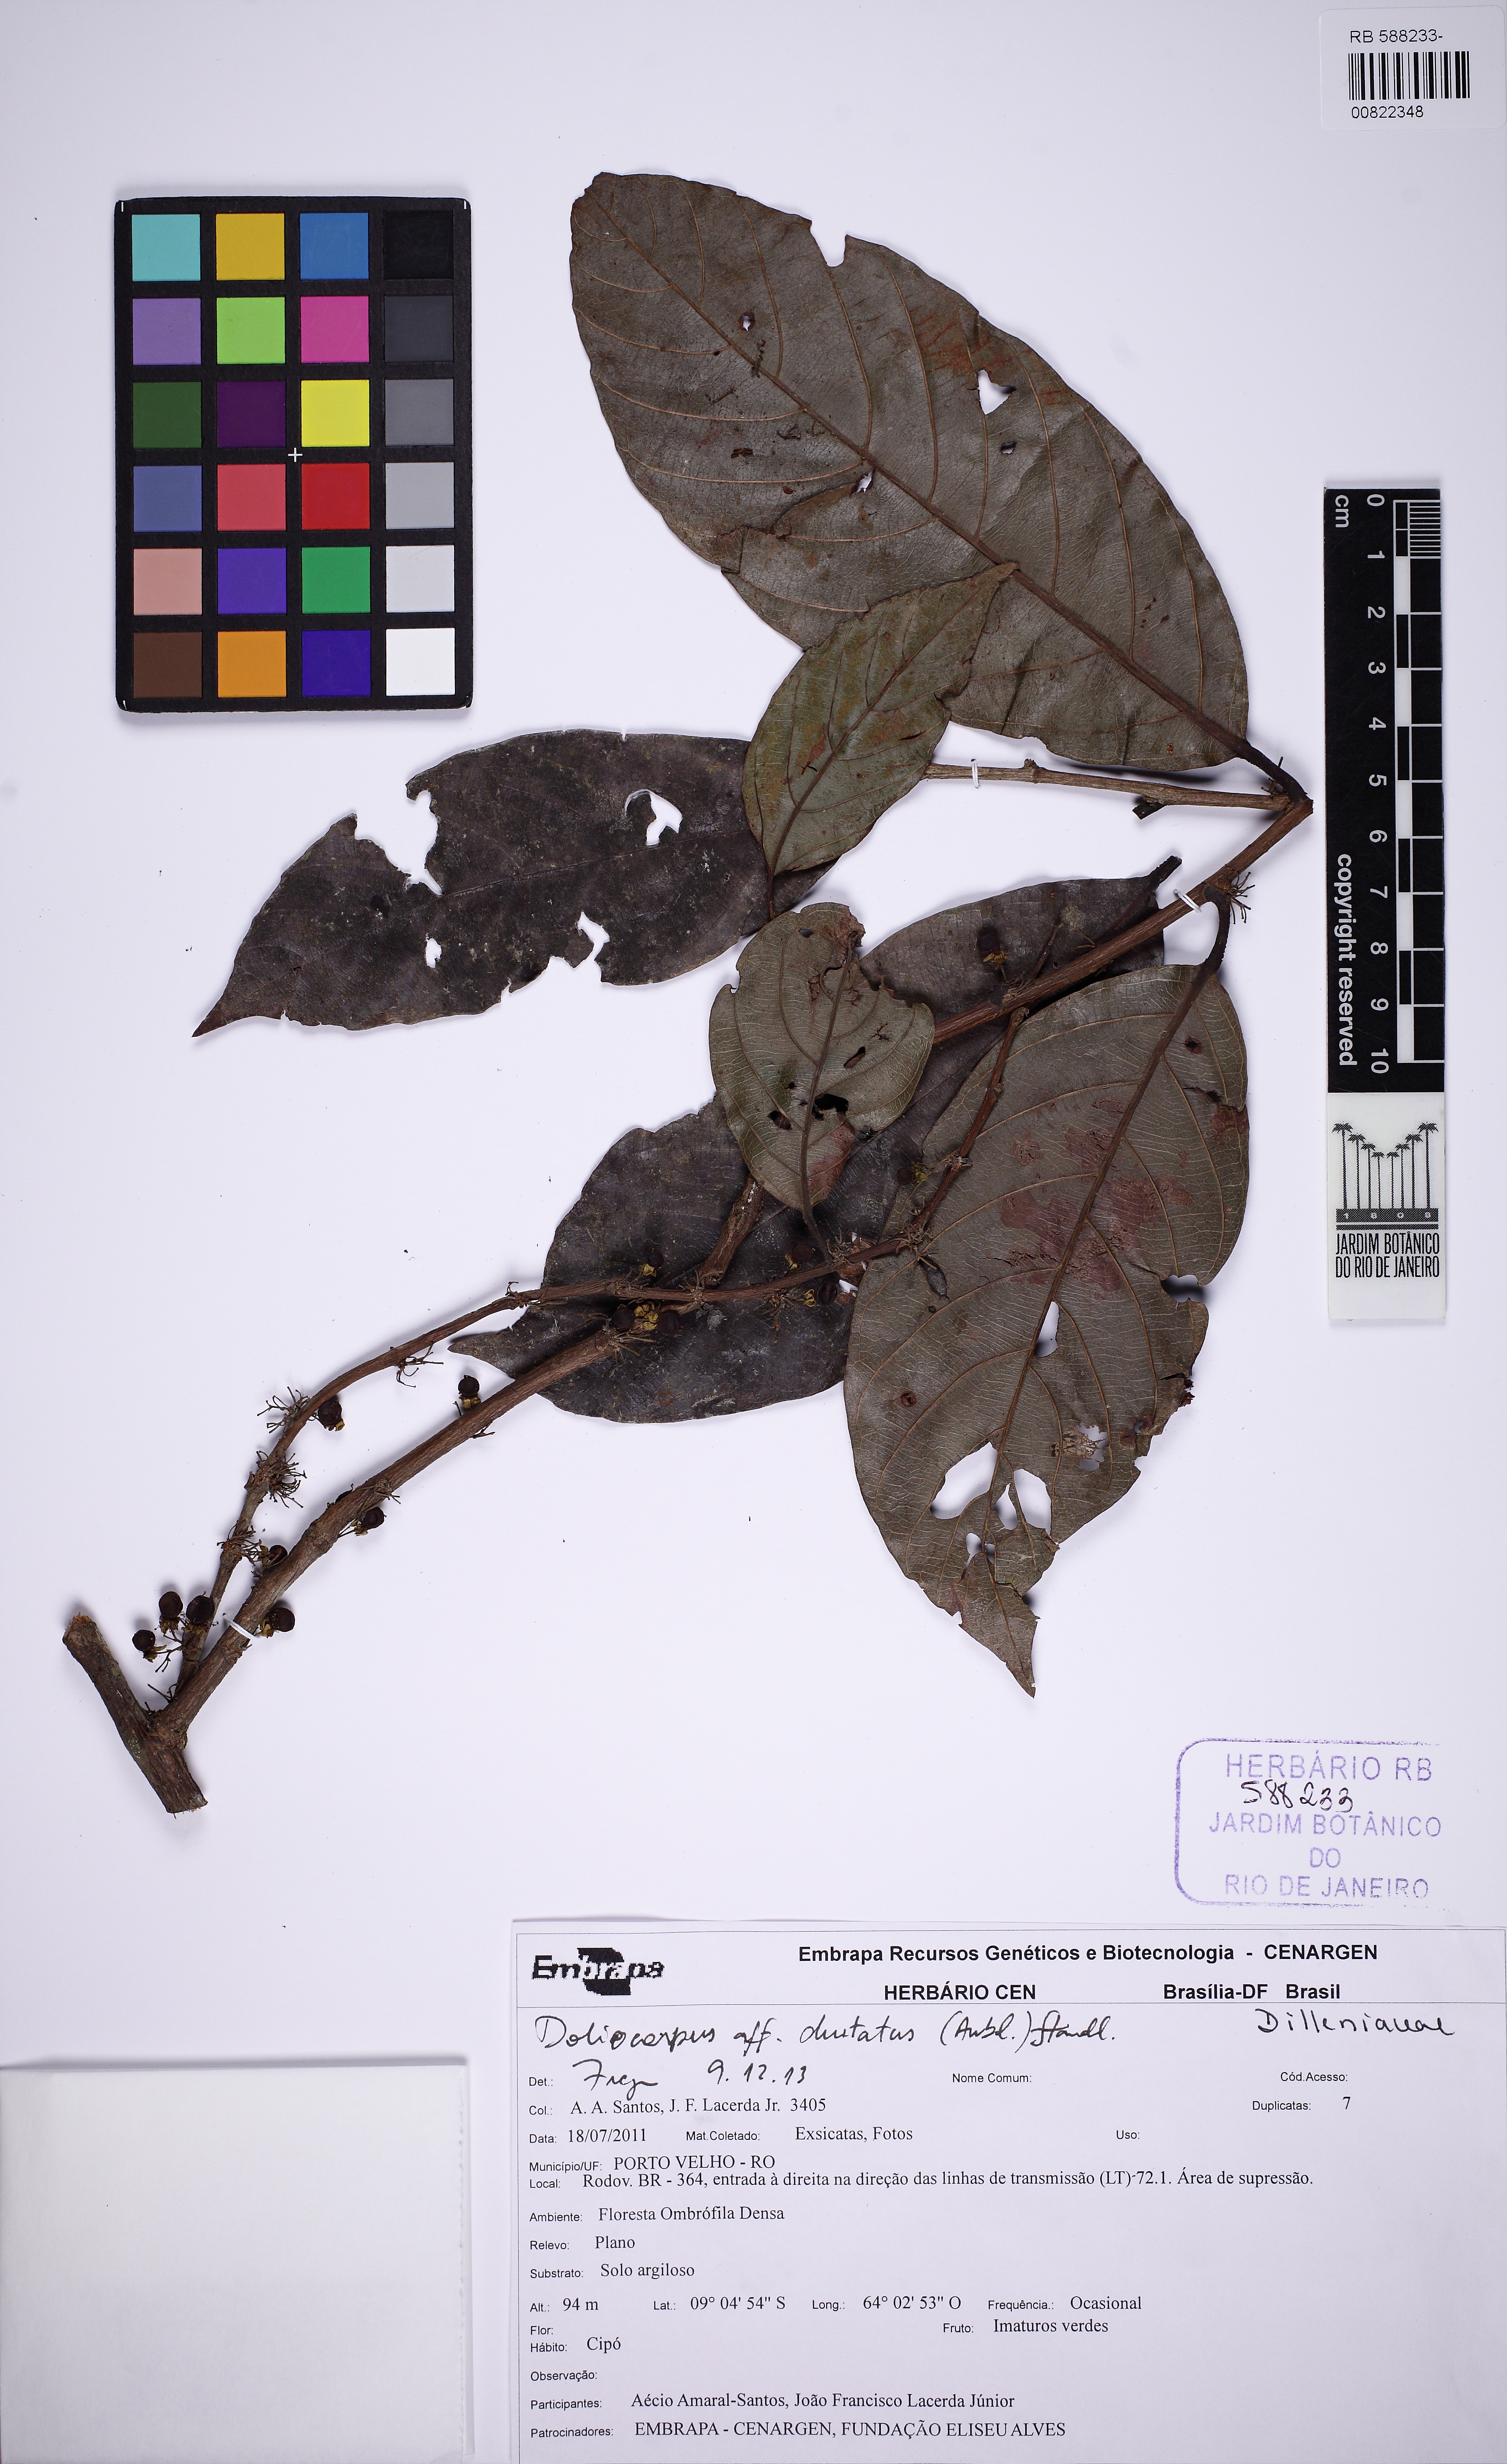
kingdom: Plantae
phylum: Tracheophyta
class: Magnoliopsida
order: Dilleniales
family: Dilleniaceae
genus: Doliocarpus
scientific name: Doliocarpus dentatus
